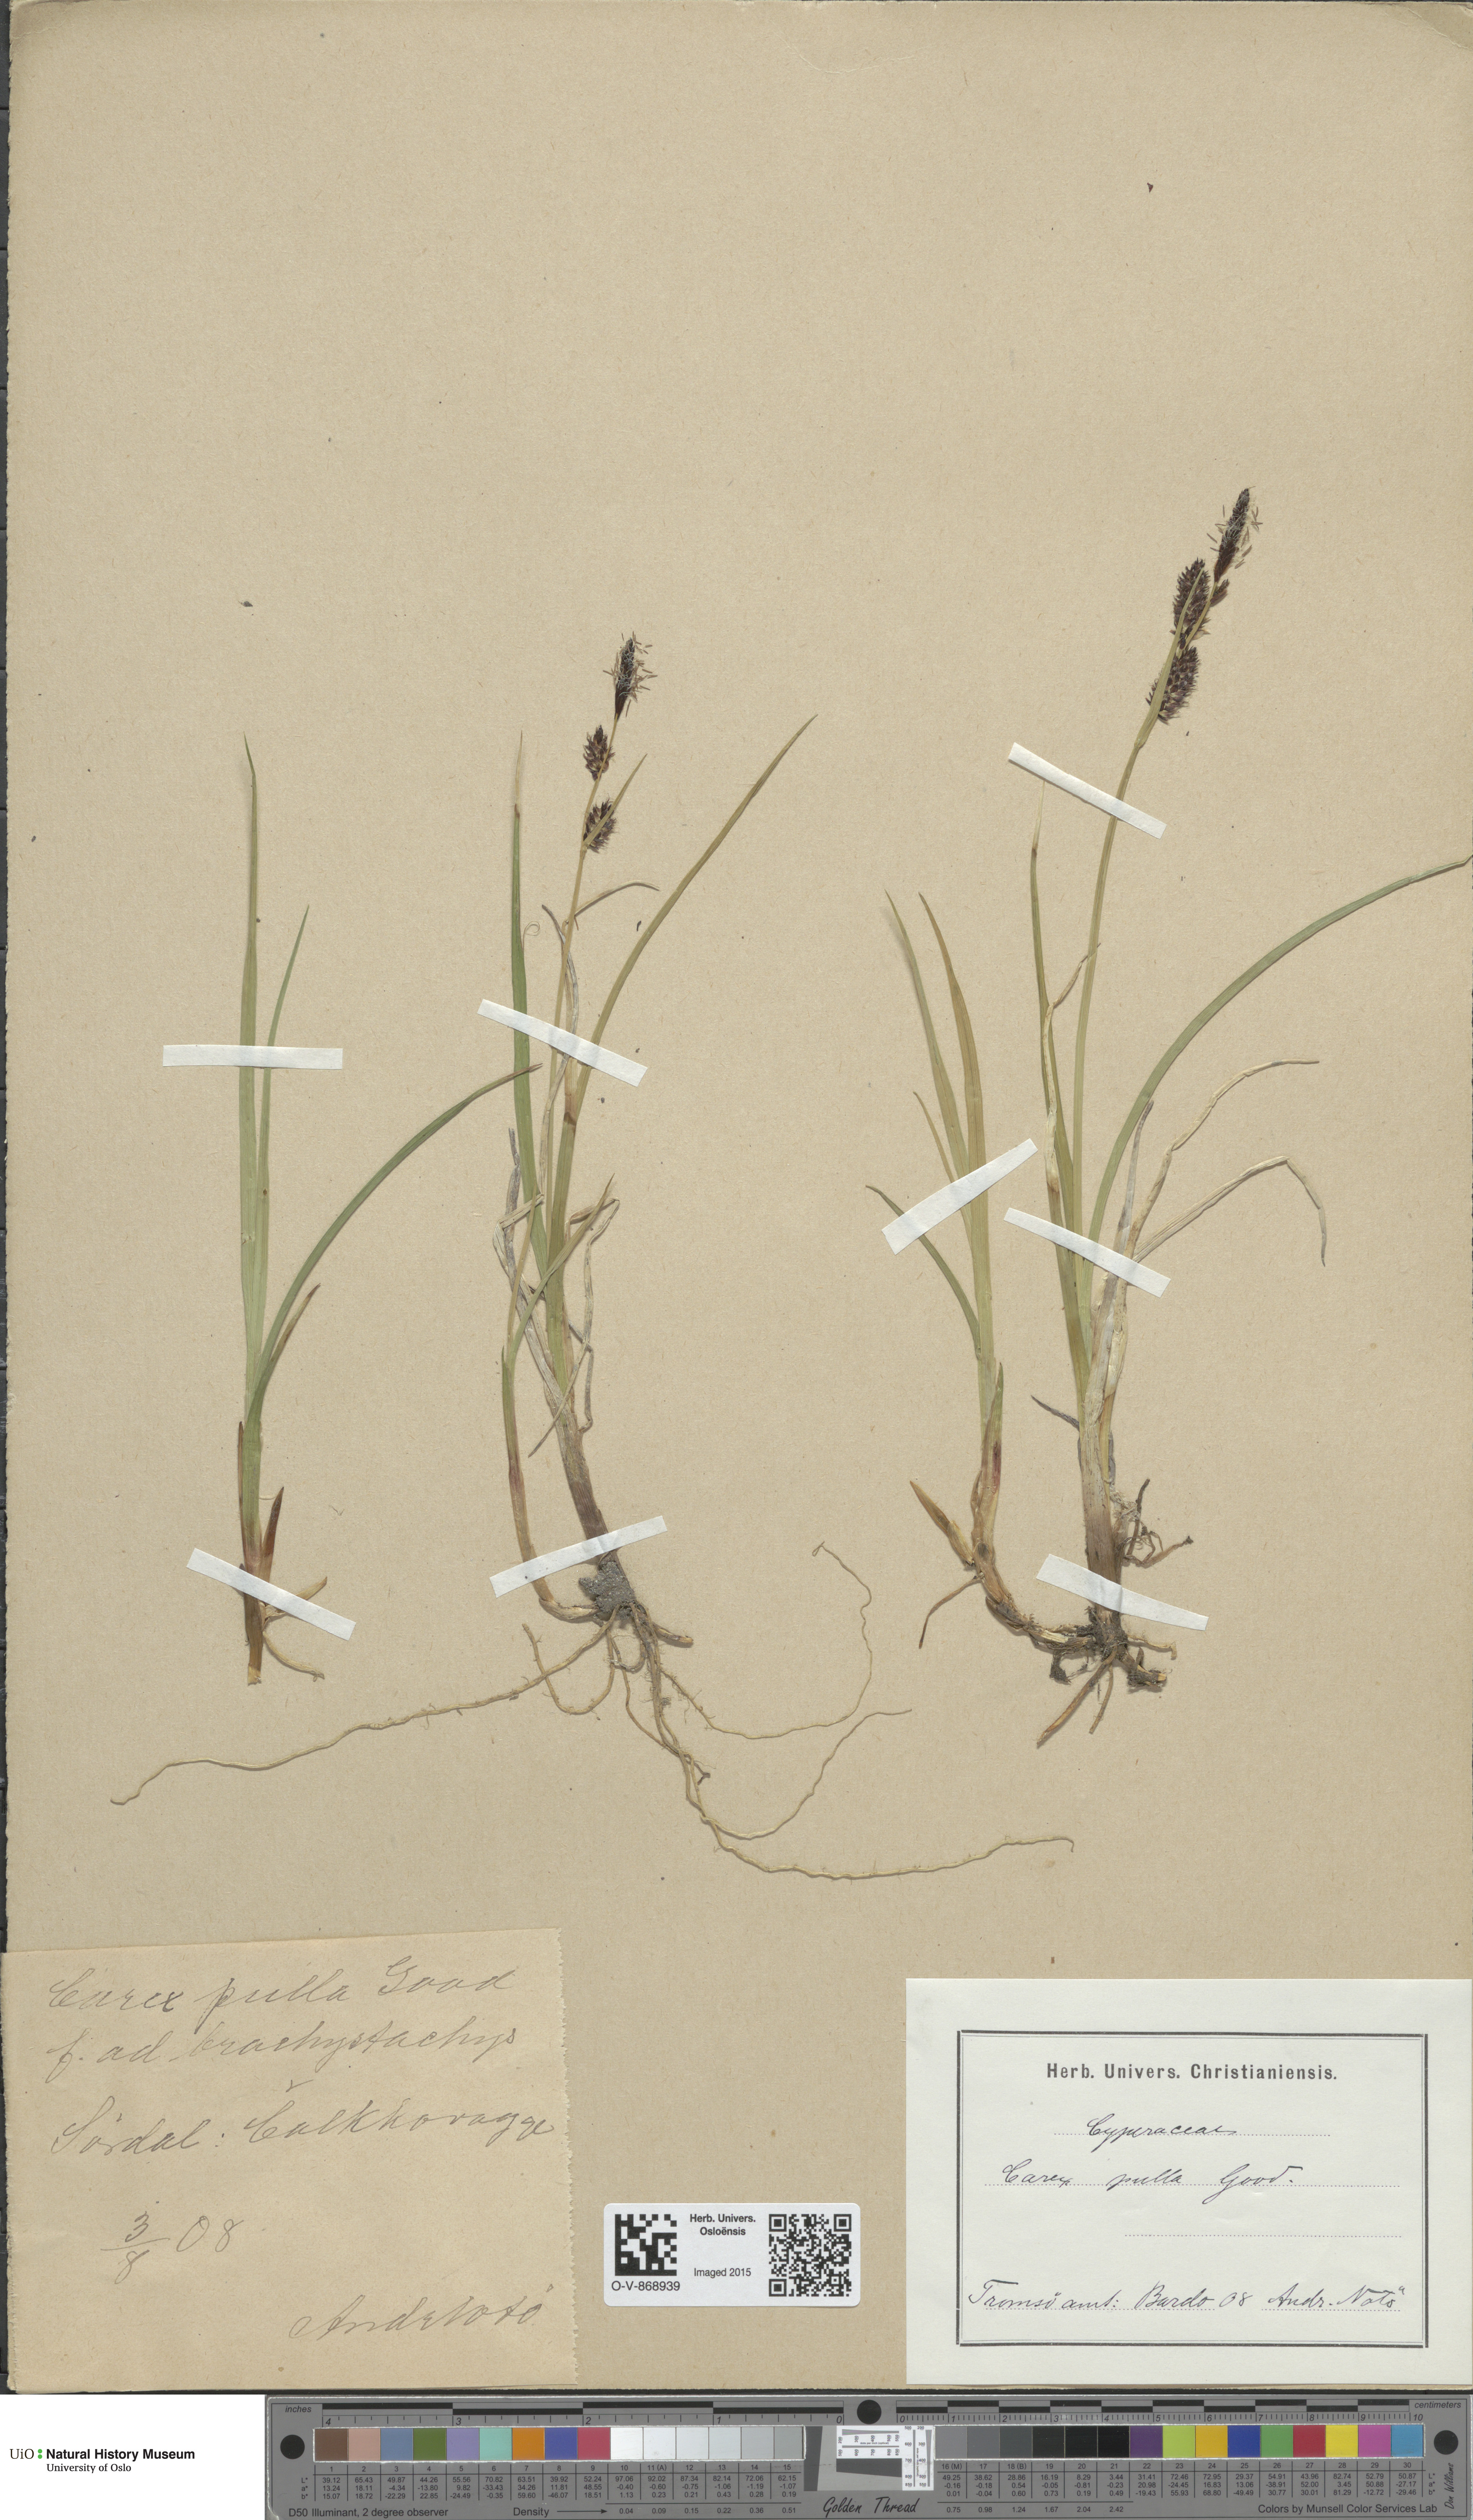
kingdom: Plantae
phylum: Tracheophyta
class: Liliopsida
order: Poales
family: Cyperaceae
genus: Carex
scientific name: Carex saxatilis
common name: Russet sedge
